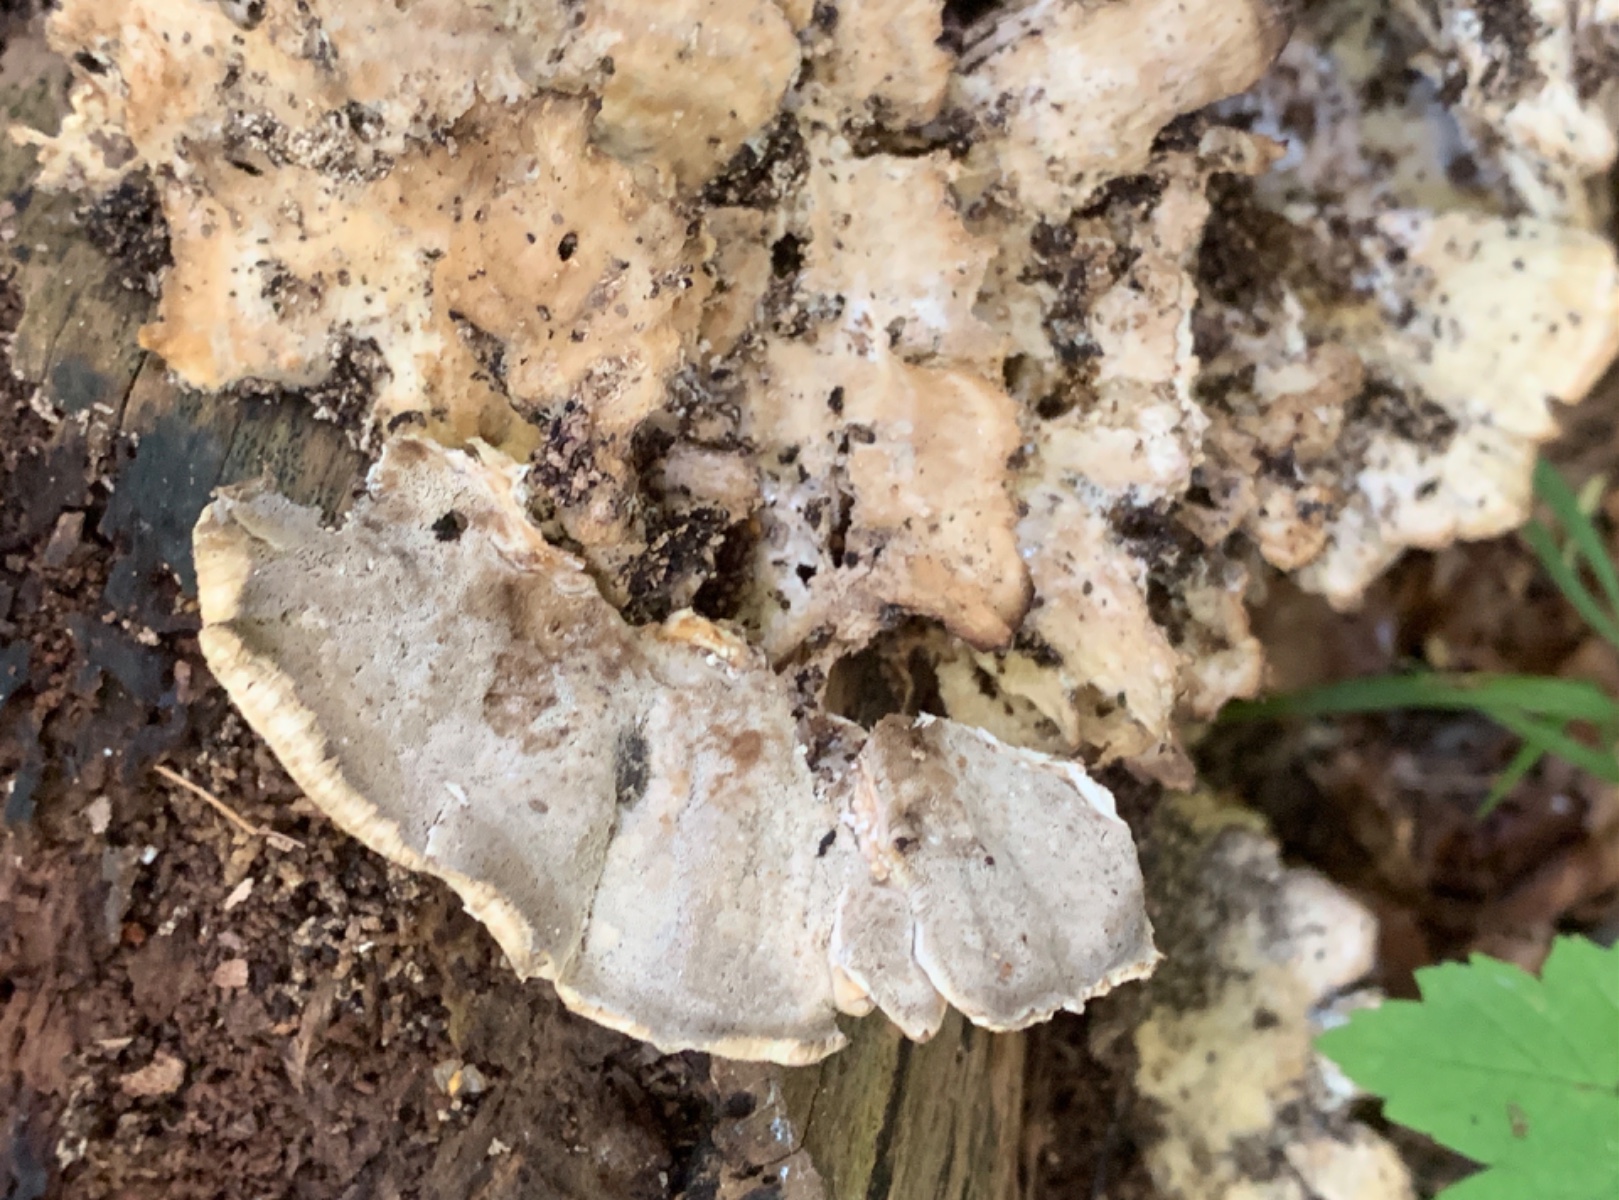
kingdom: Fungi
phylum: Basidiomycota
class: Agaricomycetes
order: Polyporales
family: Phanerochaetaceae
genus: Bjerkandera
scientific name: Bjerkandera adusta
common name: sveden sodporesvamp
